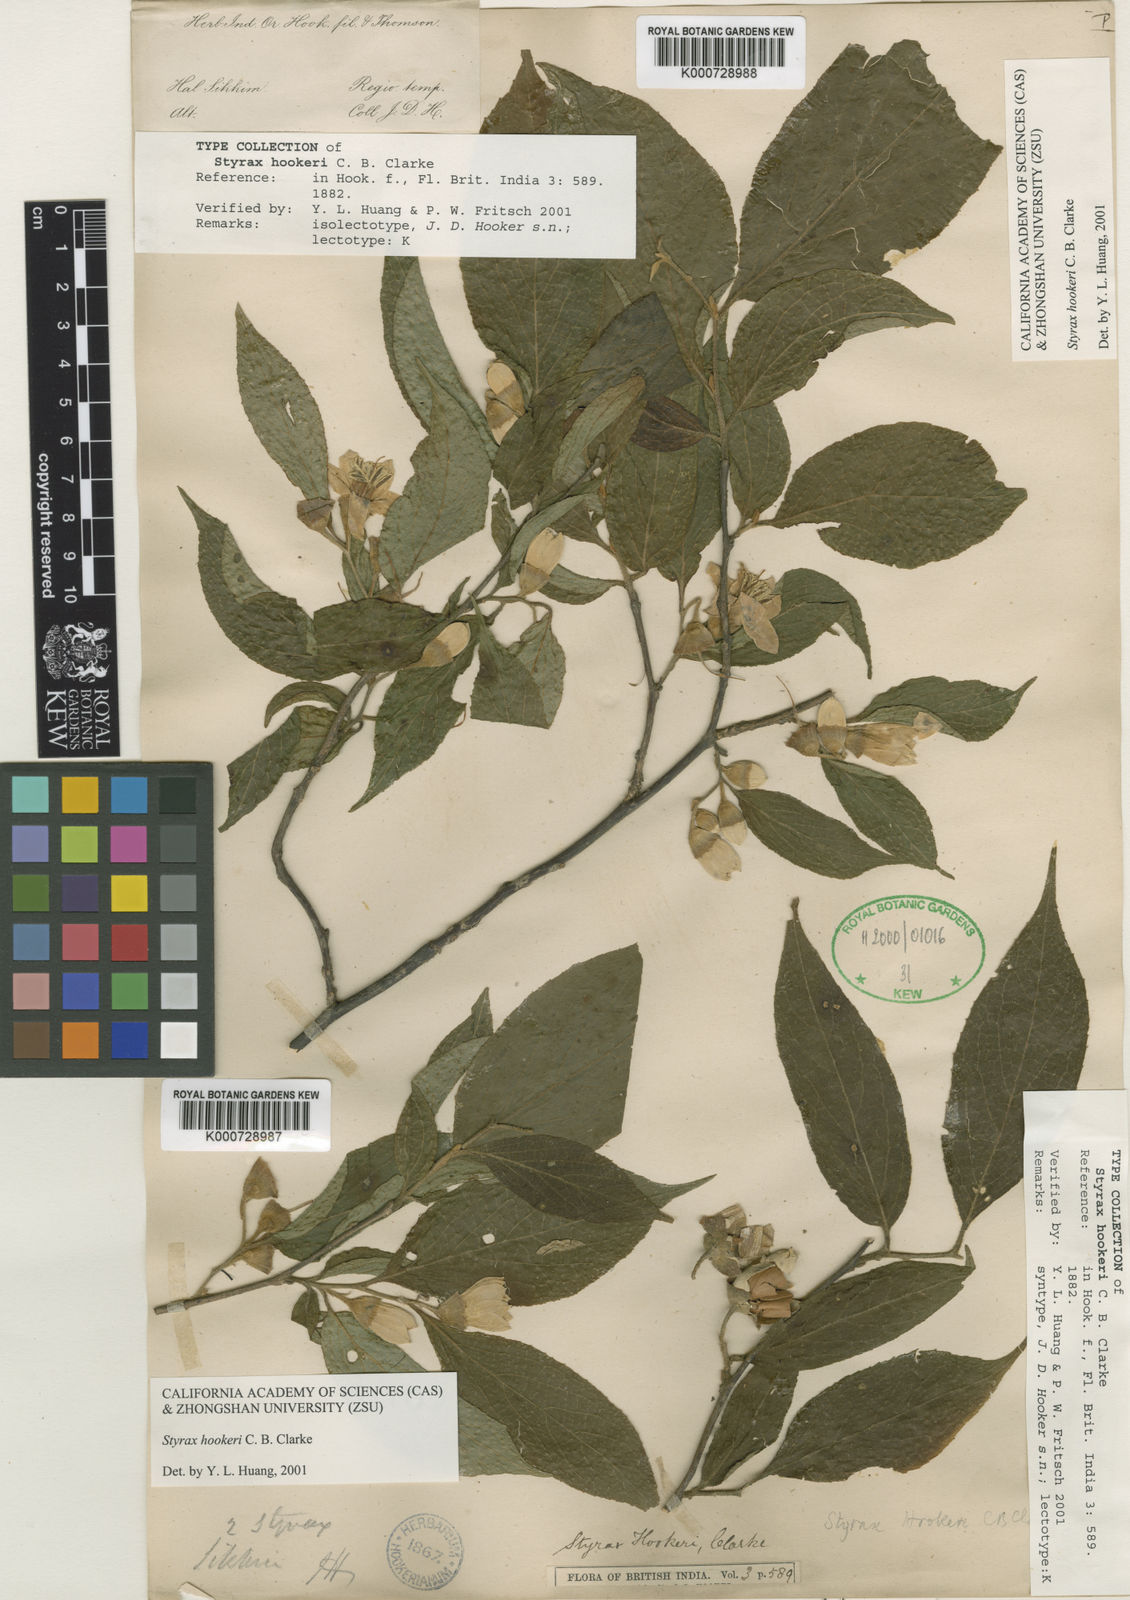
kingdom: Plantae
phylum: Tracheophyta
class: Magnoliopsida
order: Ericales
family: Styracaceae
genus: Styrax
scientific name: Styrax hookeri
